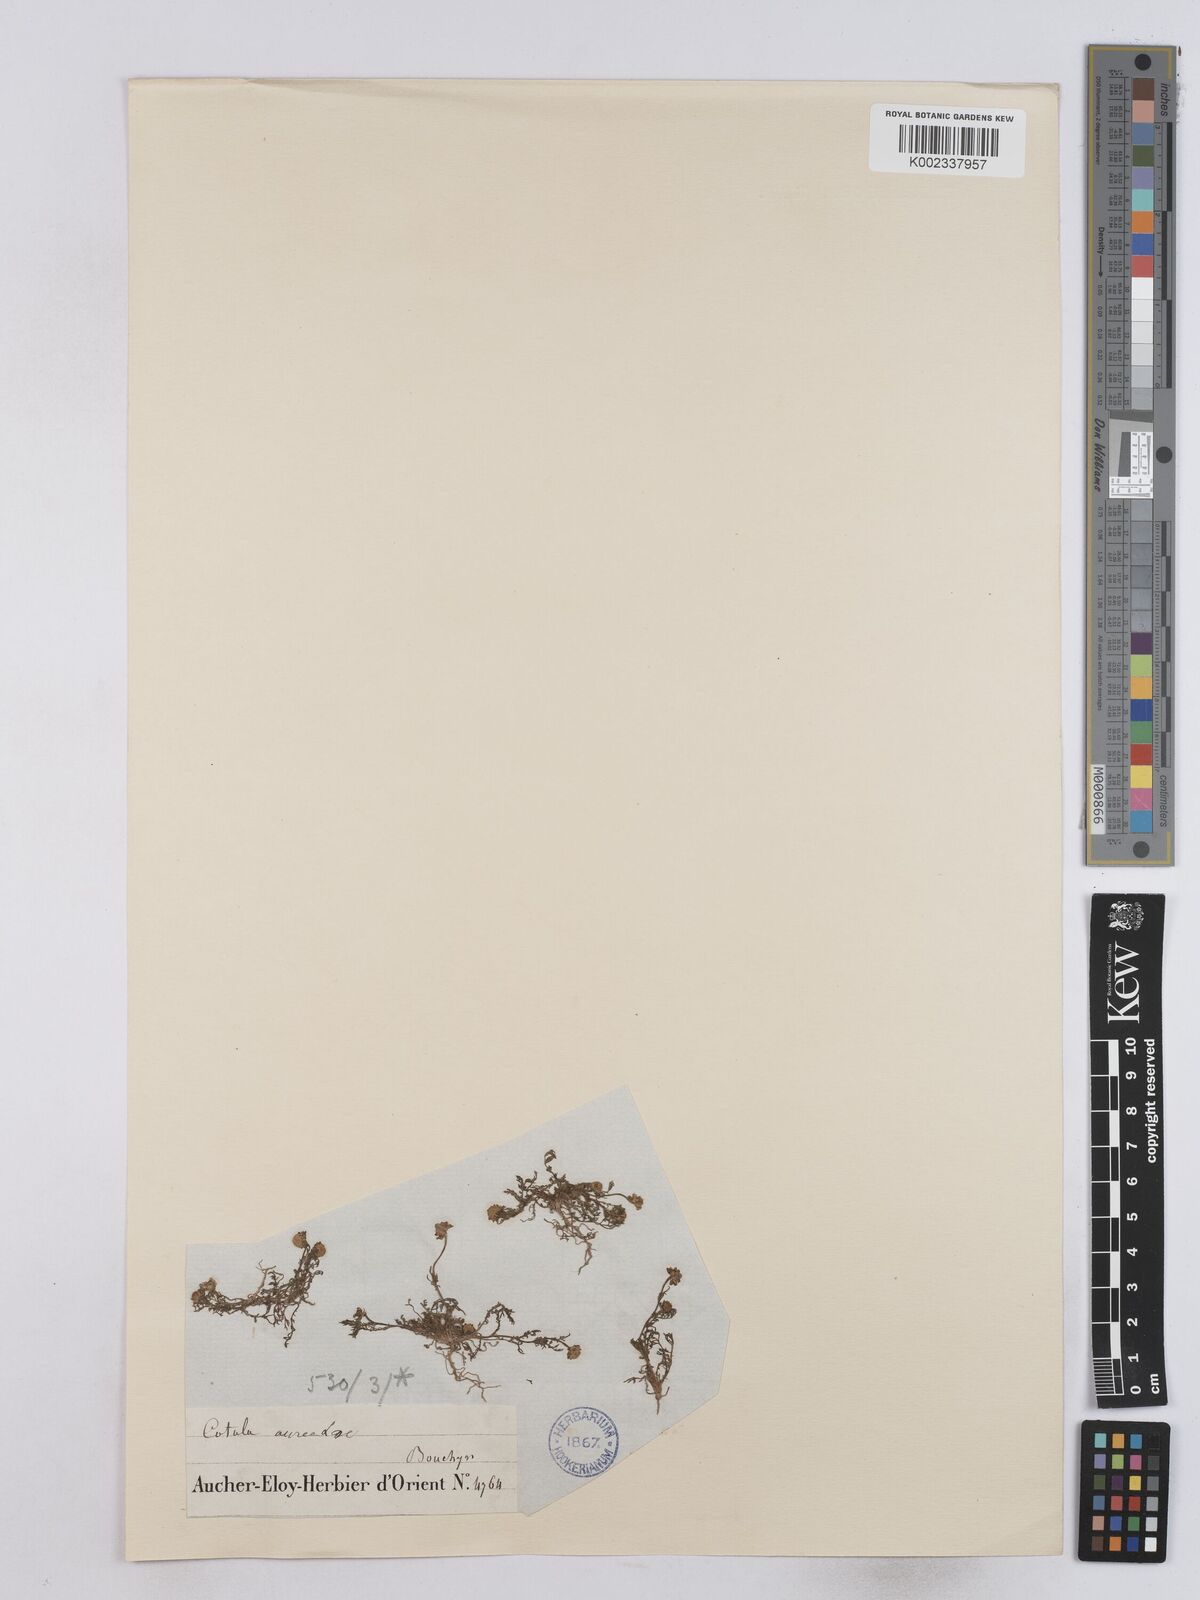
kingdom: Plantae
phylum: Tracheophyta
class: Magnoliopsida
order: Asterales
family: Asteraceae
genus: Matricaria
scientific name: Matricaria aurea
